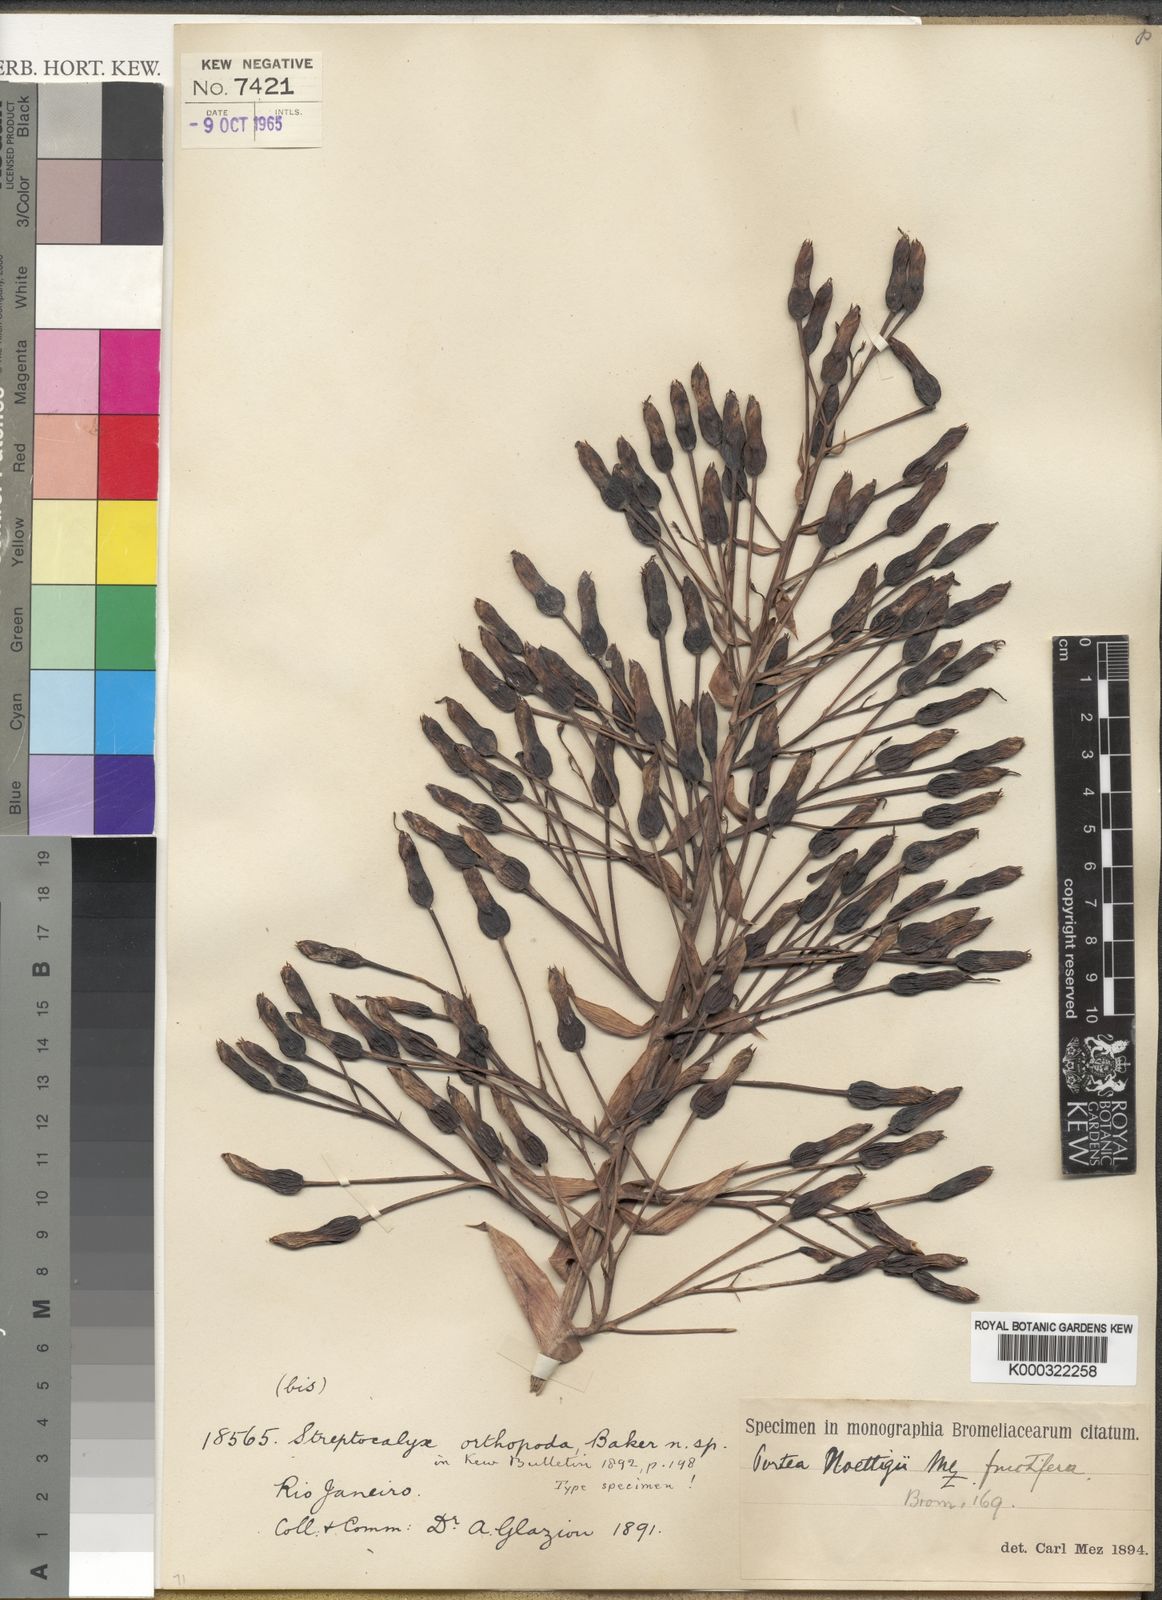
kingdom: Plantae
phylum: Tracheophyta
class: Liliopsida
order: Poales
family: Bromeliaceae
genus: Portea
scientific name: Portea petropolitana
